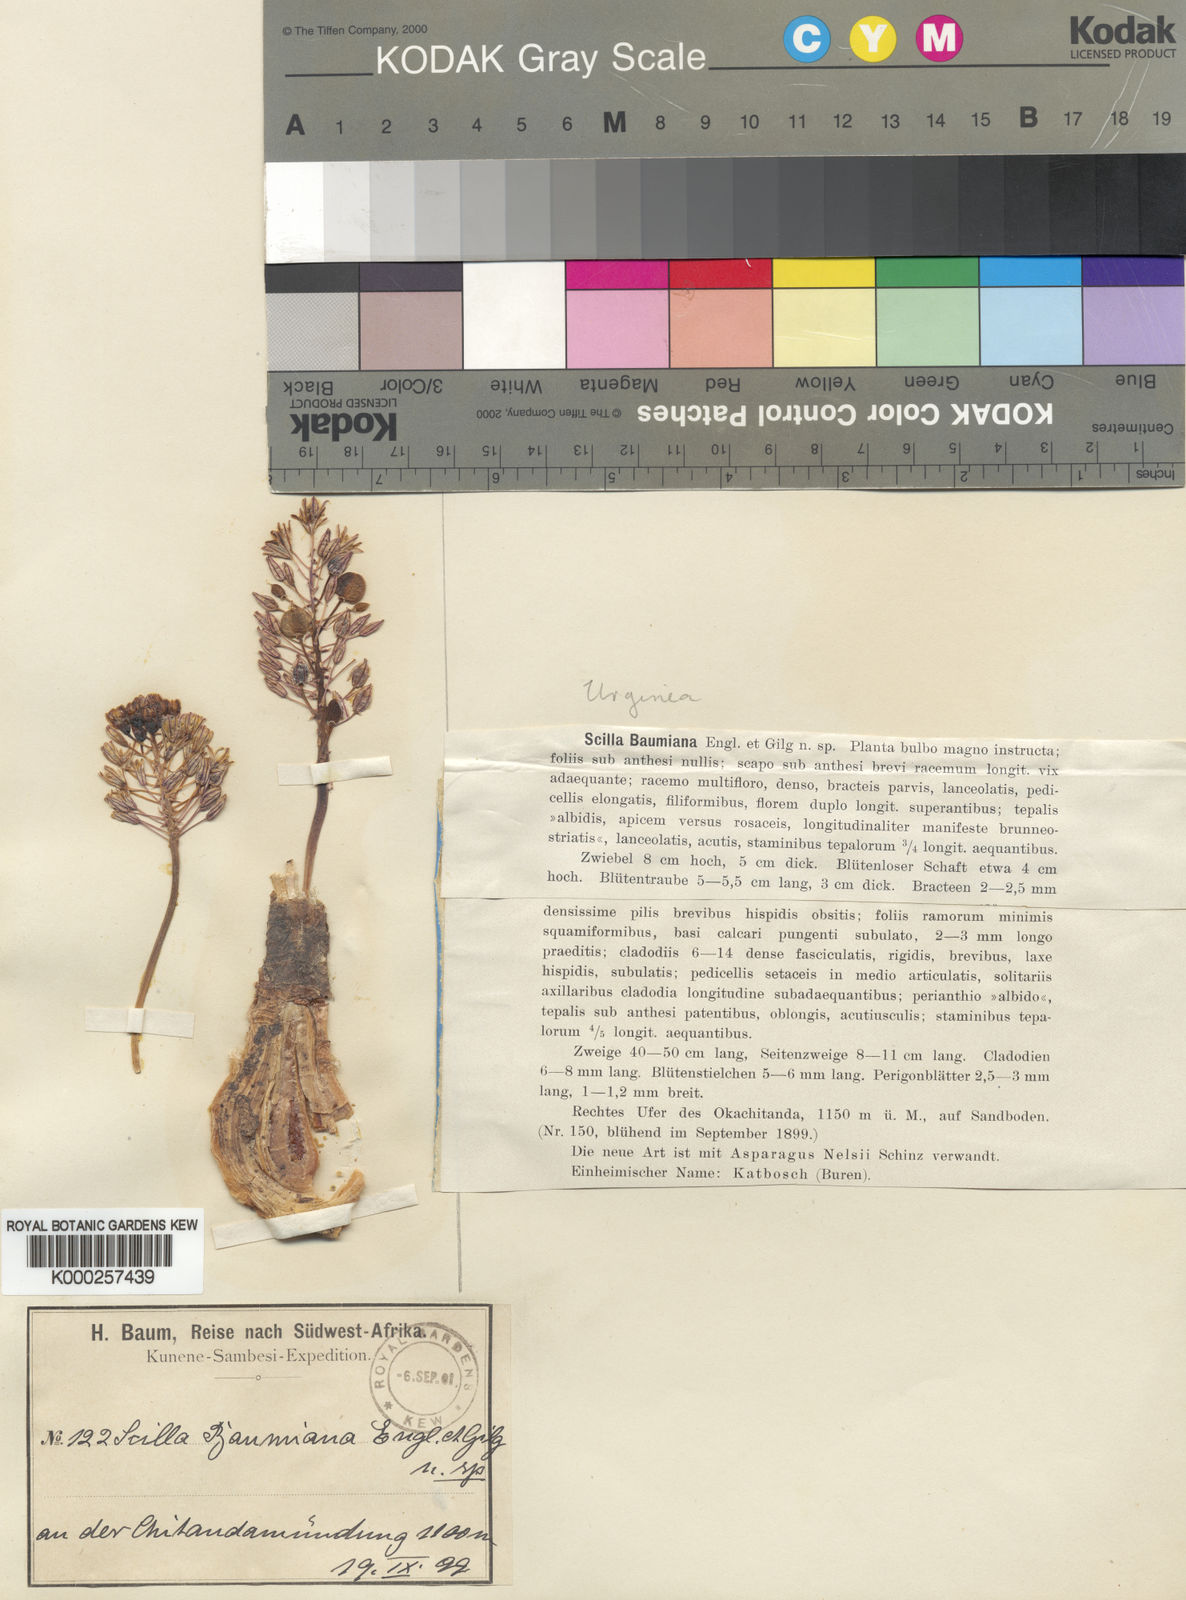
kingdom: Plantae
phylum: Tracheophyta
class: Liliopsida
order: Asparagales
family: Asparagaceae
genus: Scilla
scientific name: Scilla baumiana
